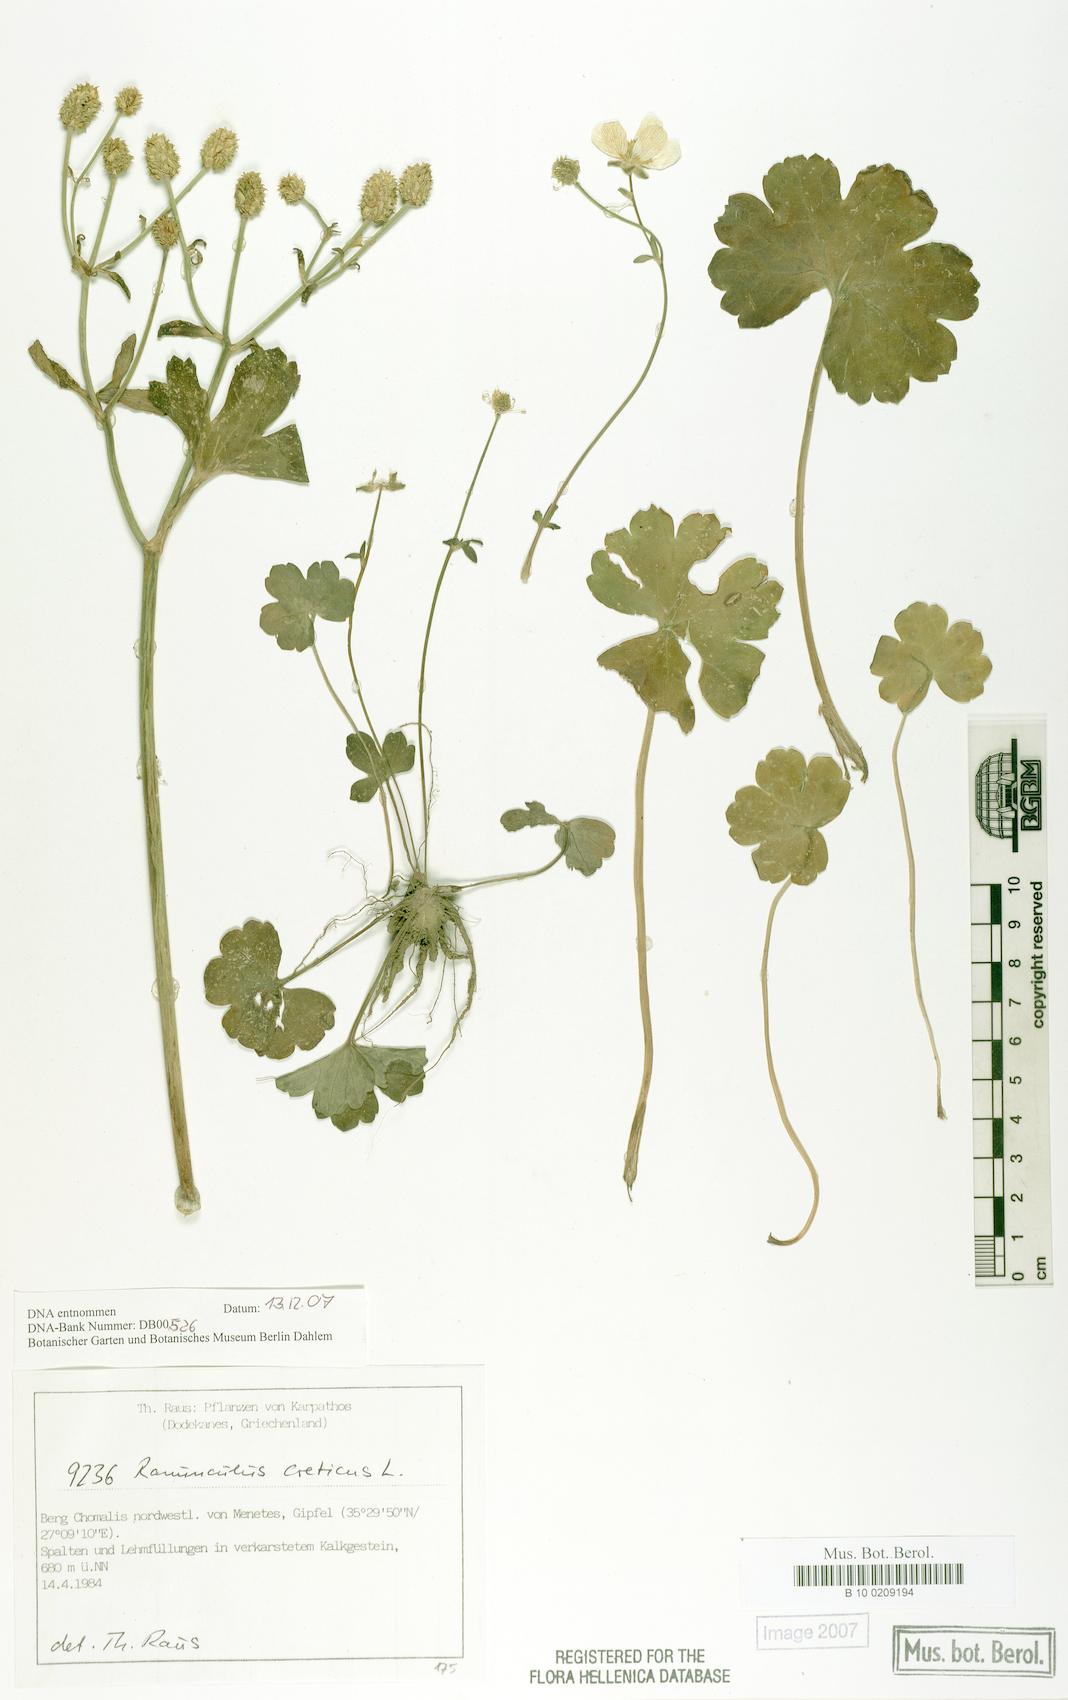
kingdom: Plantae
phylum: Tracheophyta
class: Magnoliopsida
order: Ranunculales
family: Ranunculaceae
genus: Ranunculus
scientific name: Ranunculus creticus
